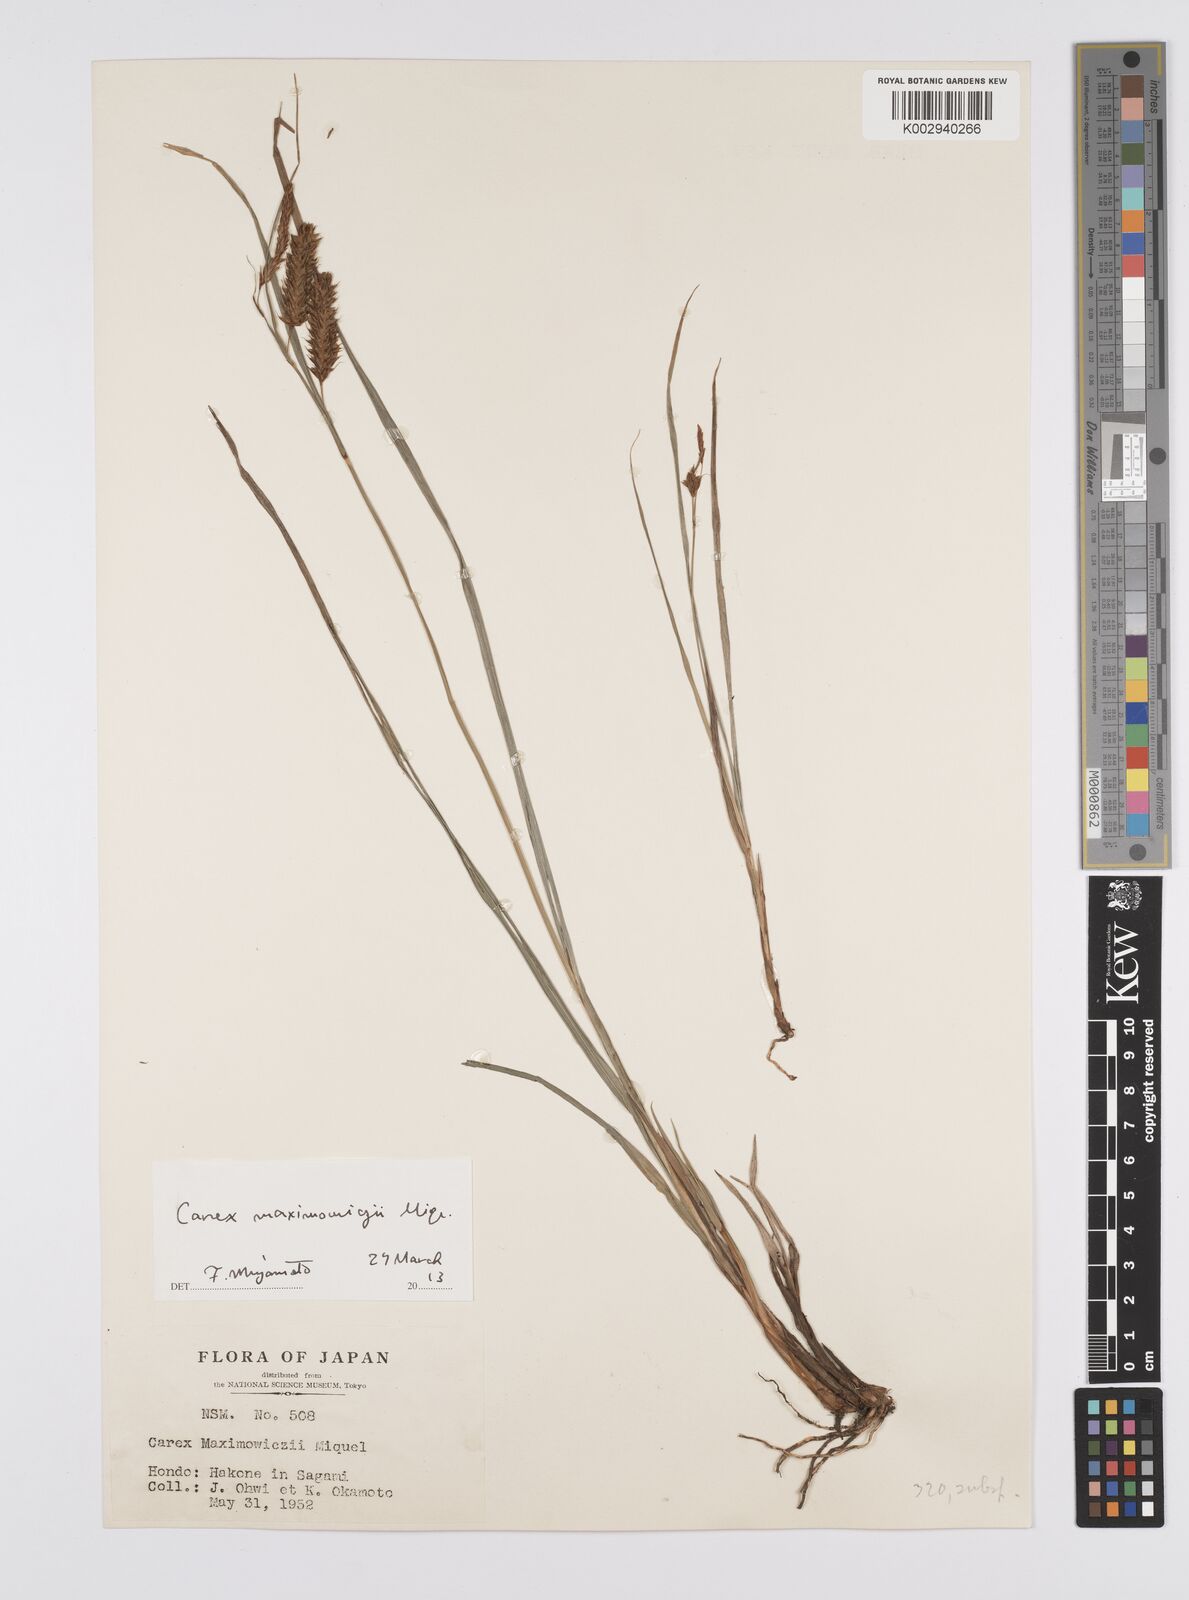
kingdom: Plantae
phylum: Tracheophyta
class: Liliopsida
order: Poales
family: Cyperaceae
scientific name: Cyperaceae
